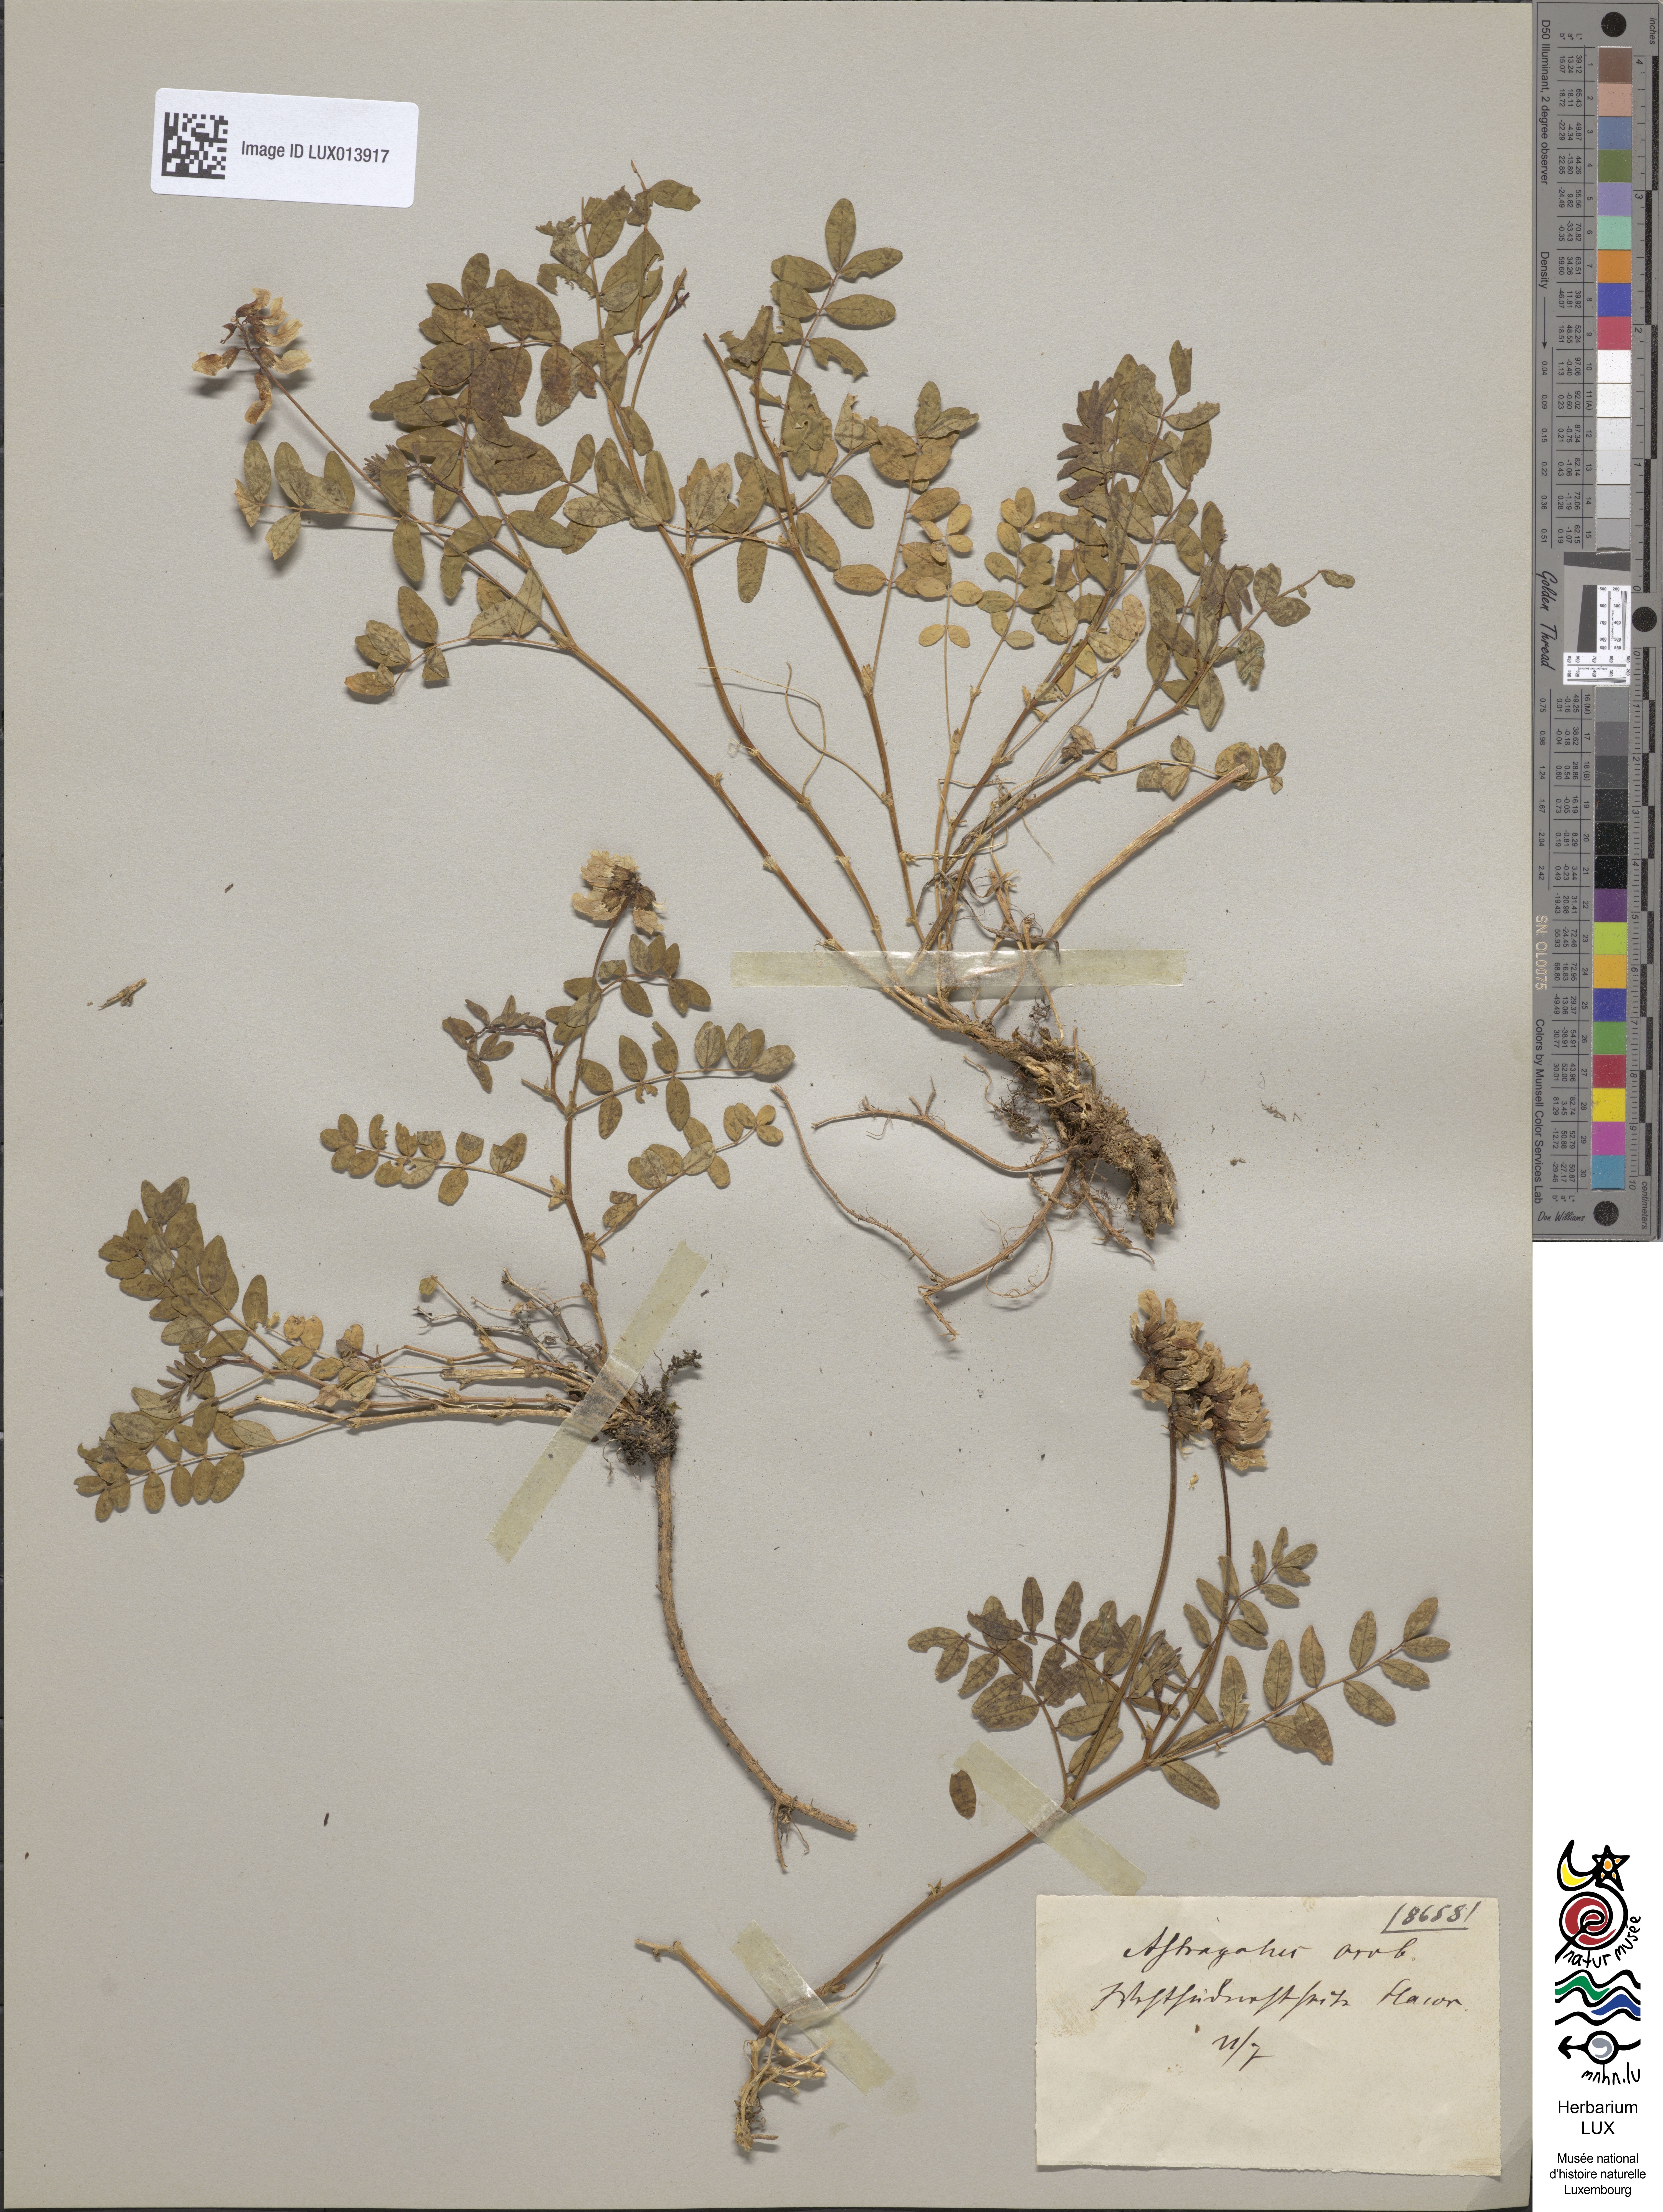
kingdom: Plantae
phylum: Tracheophyta
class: Magnoliopsida
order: Fabales
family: Fabaceae
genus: Astragalus
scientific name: Astragalus norvegicus
